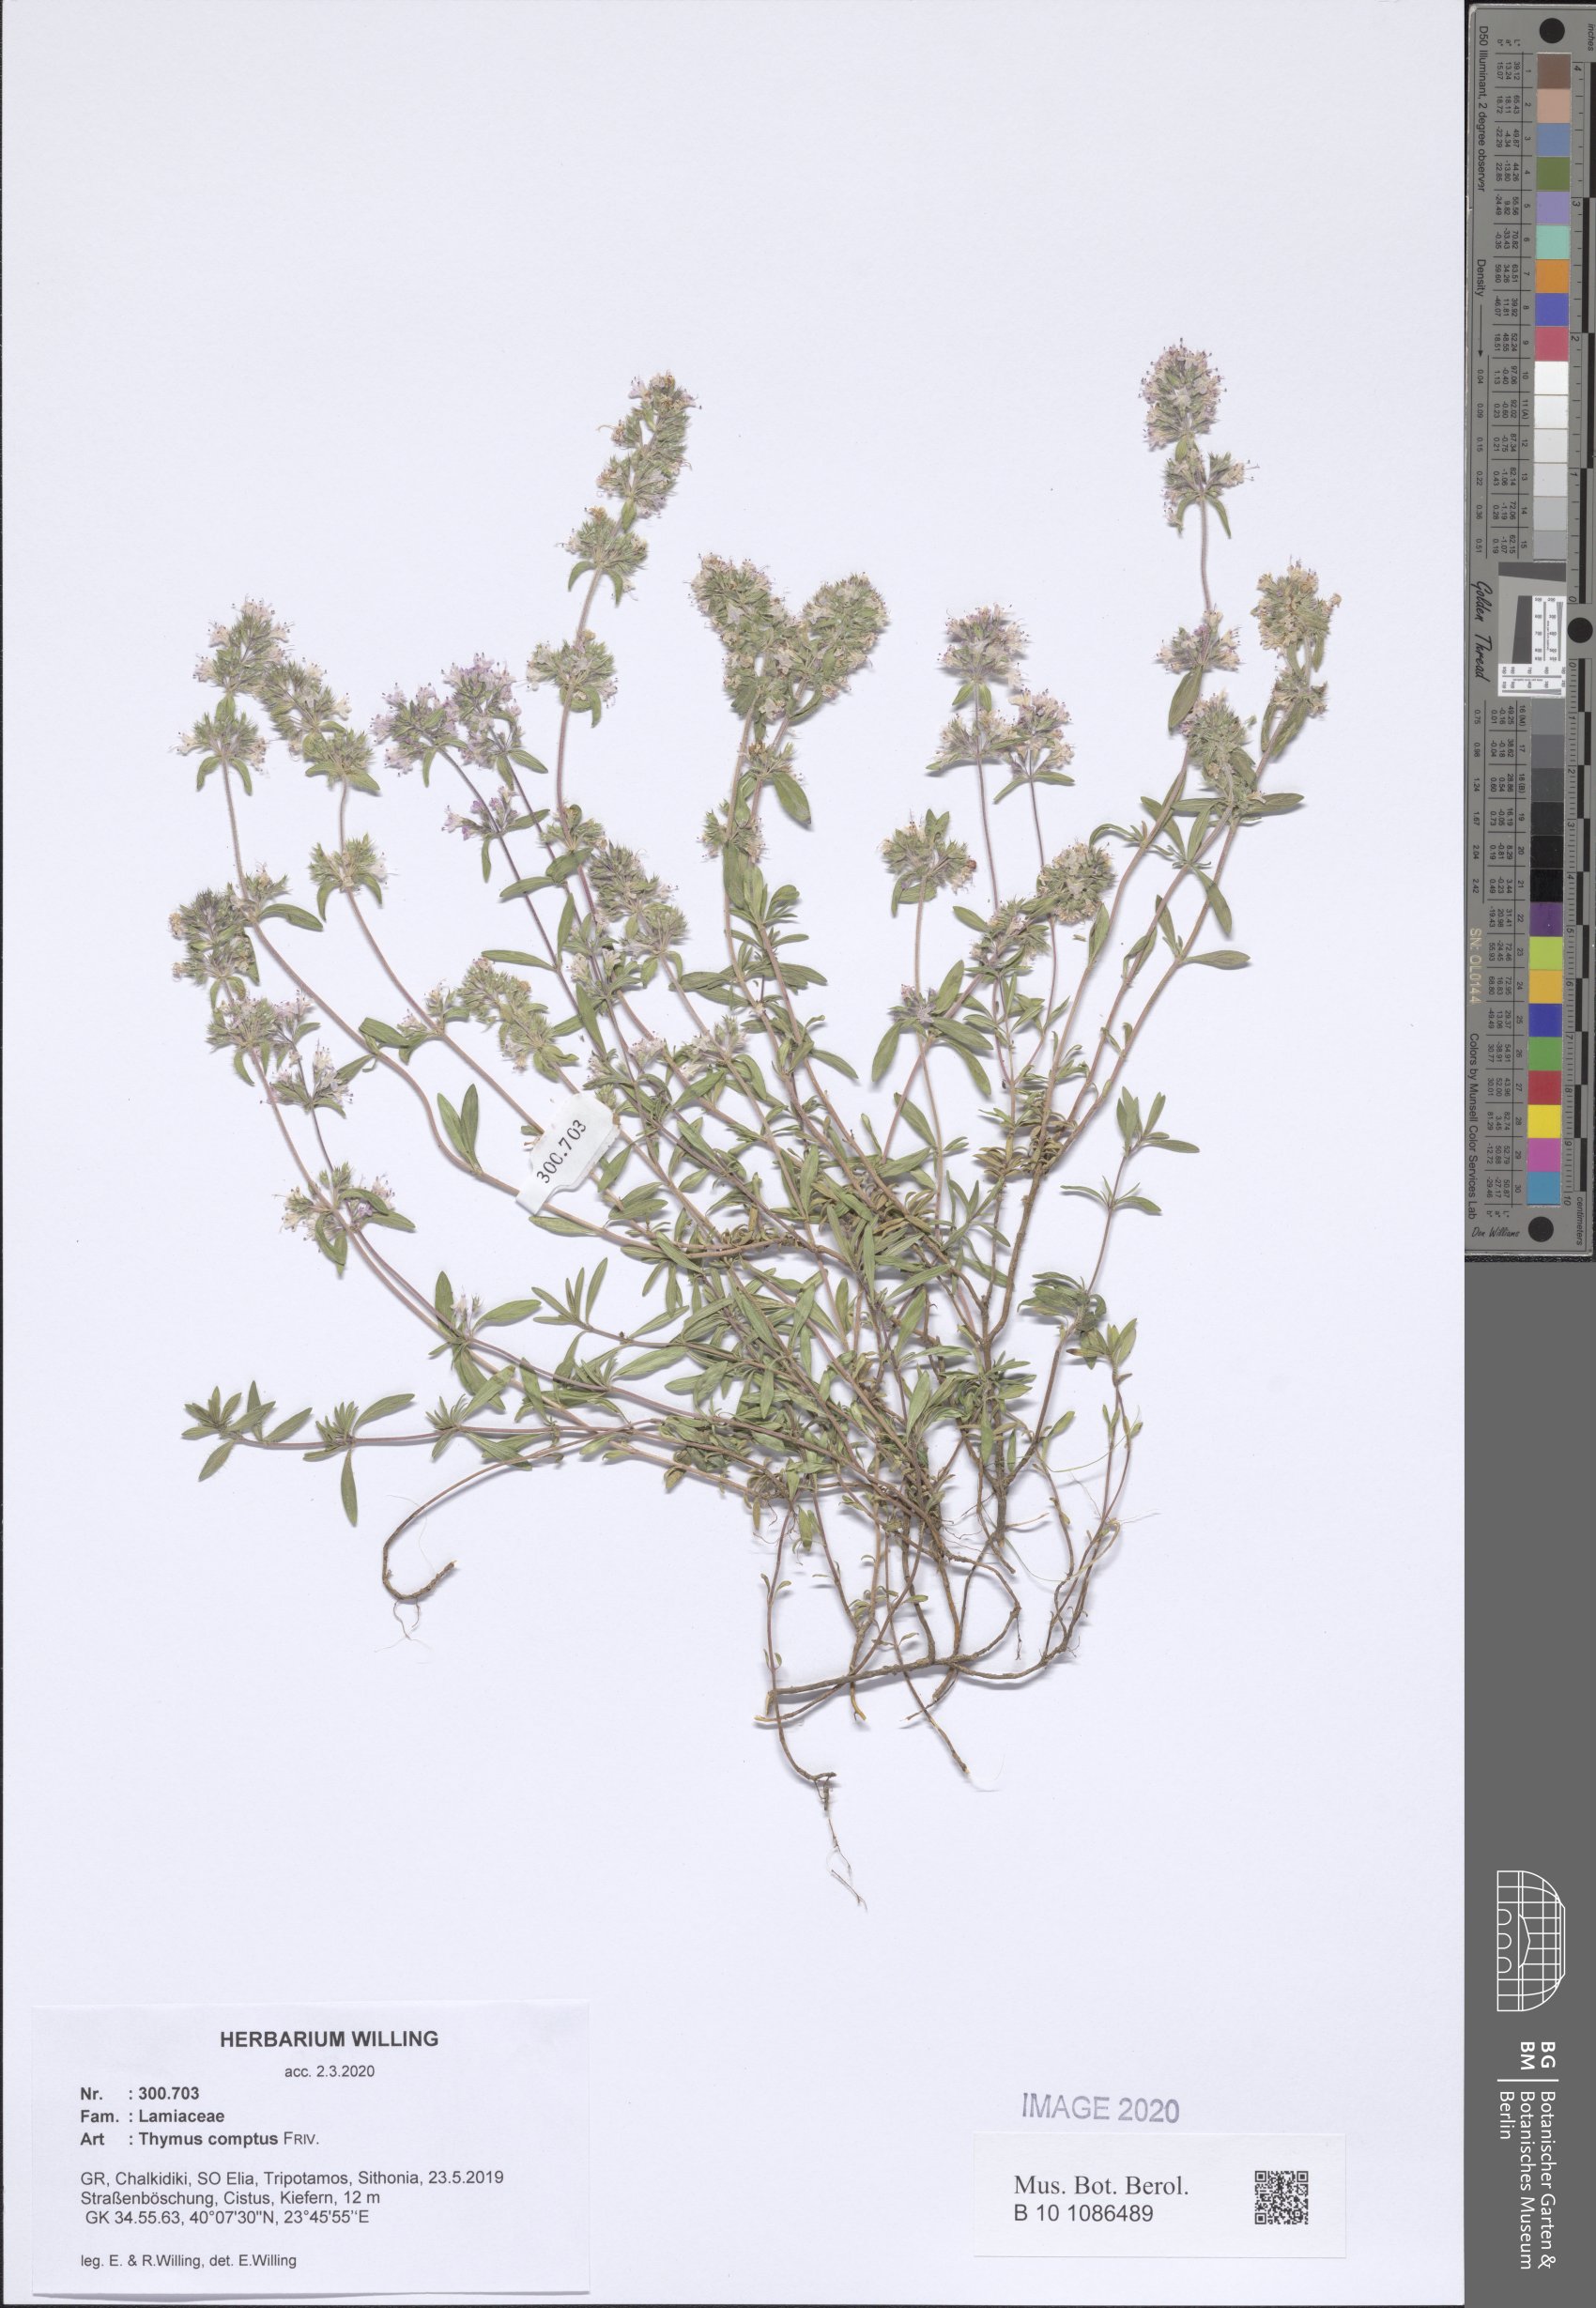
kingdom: Plantae
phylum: Tracheophyta
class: Magnoliopsida
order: Lamiales
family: Lamiaceae
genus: Thymus
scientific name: Thymus comptus
